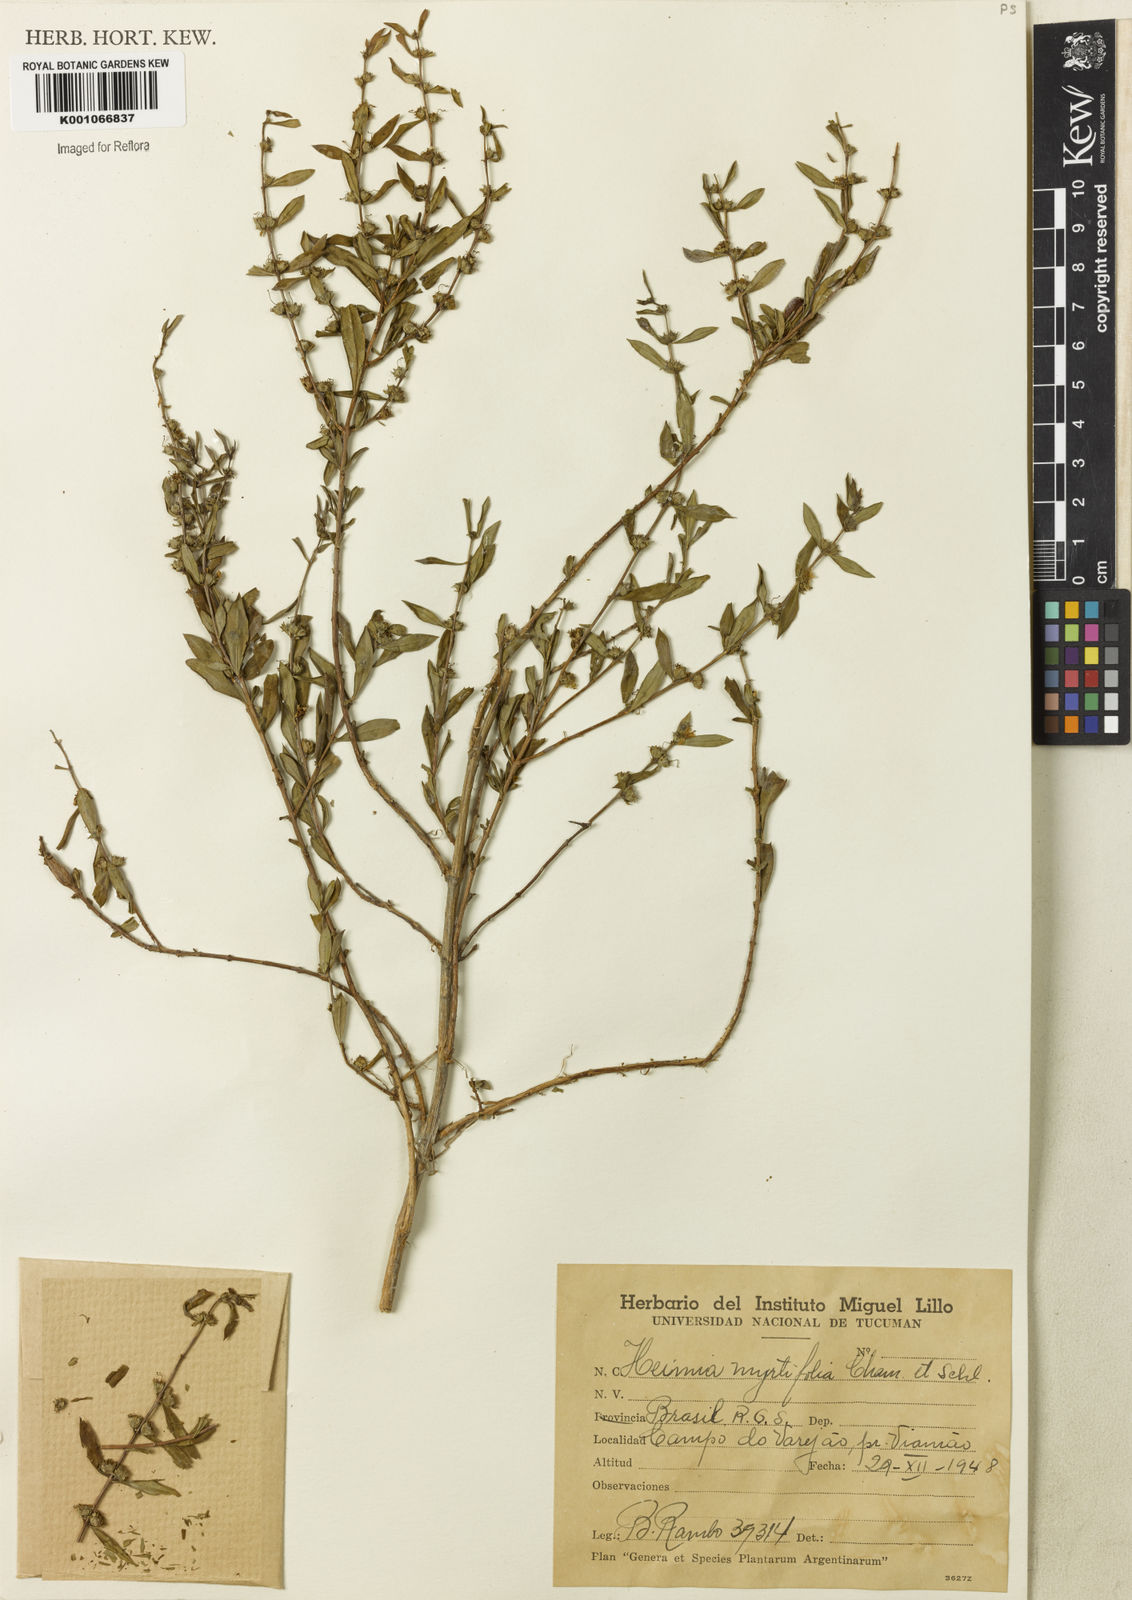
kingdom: Plantae
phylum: Tracheophyta
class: Magnoliopsida
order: Myrtales
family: Lythraceae
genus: Heimia
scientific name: Heimia apetala
